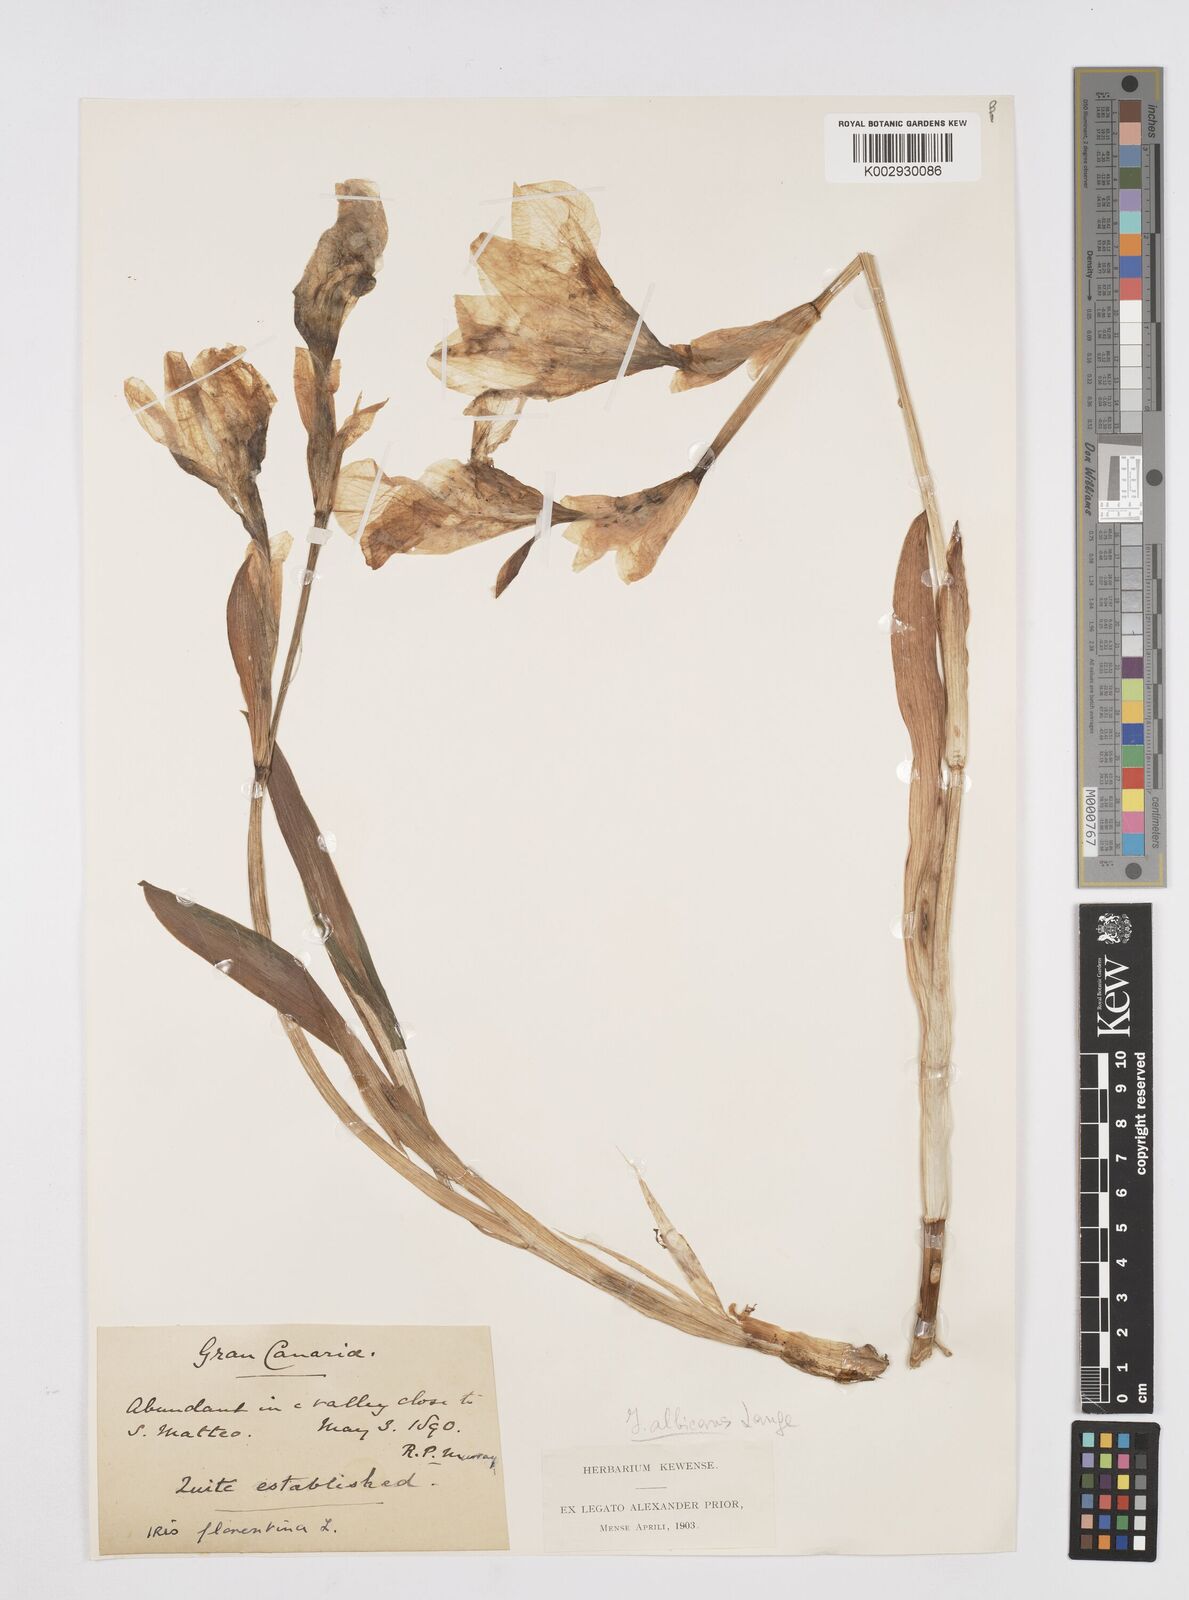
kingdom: Plantae
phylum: Tracheophyta
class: Liliopsida
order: Asparagales
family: Iridaceae
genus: Iris
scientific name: Iris florentina
